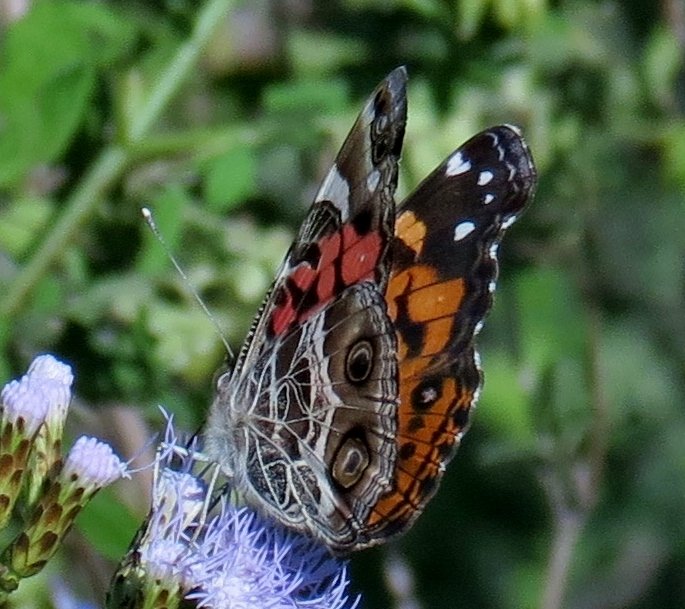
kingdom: Animalia
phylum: Arthropoda
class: Insecta
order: Lepidoptera
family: Nymphalidae
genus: Vanessa
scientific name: Vanessa virginiensis
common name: American Lady
